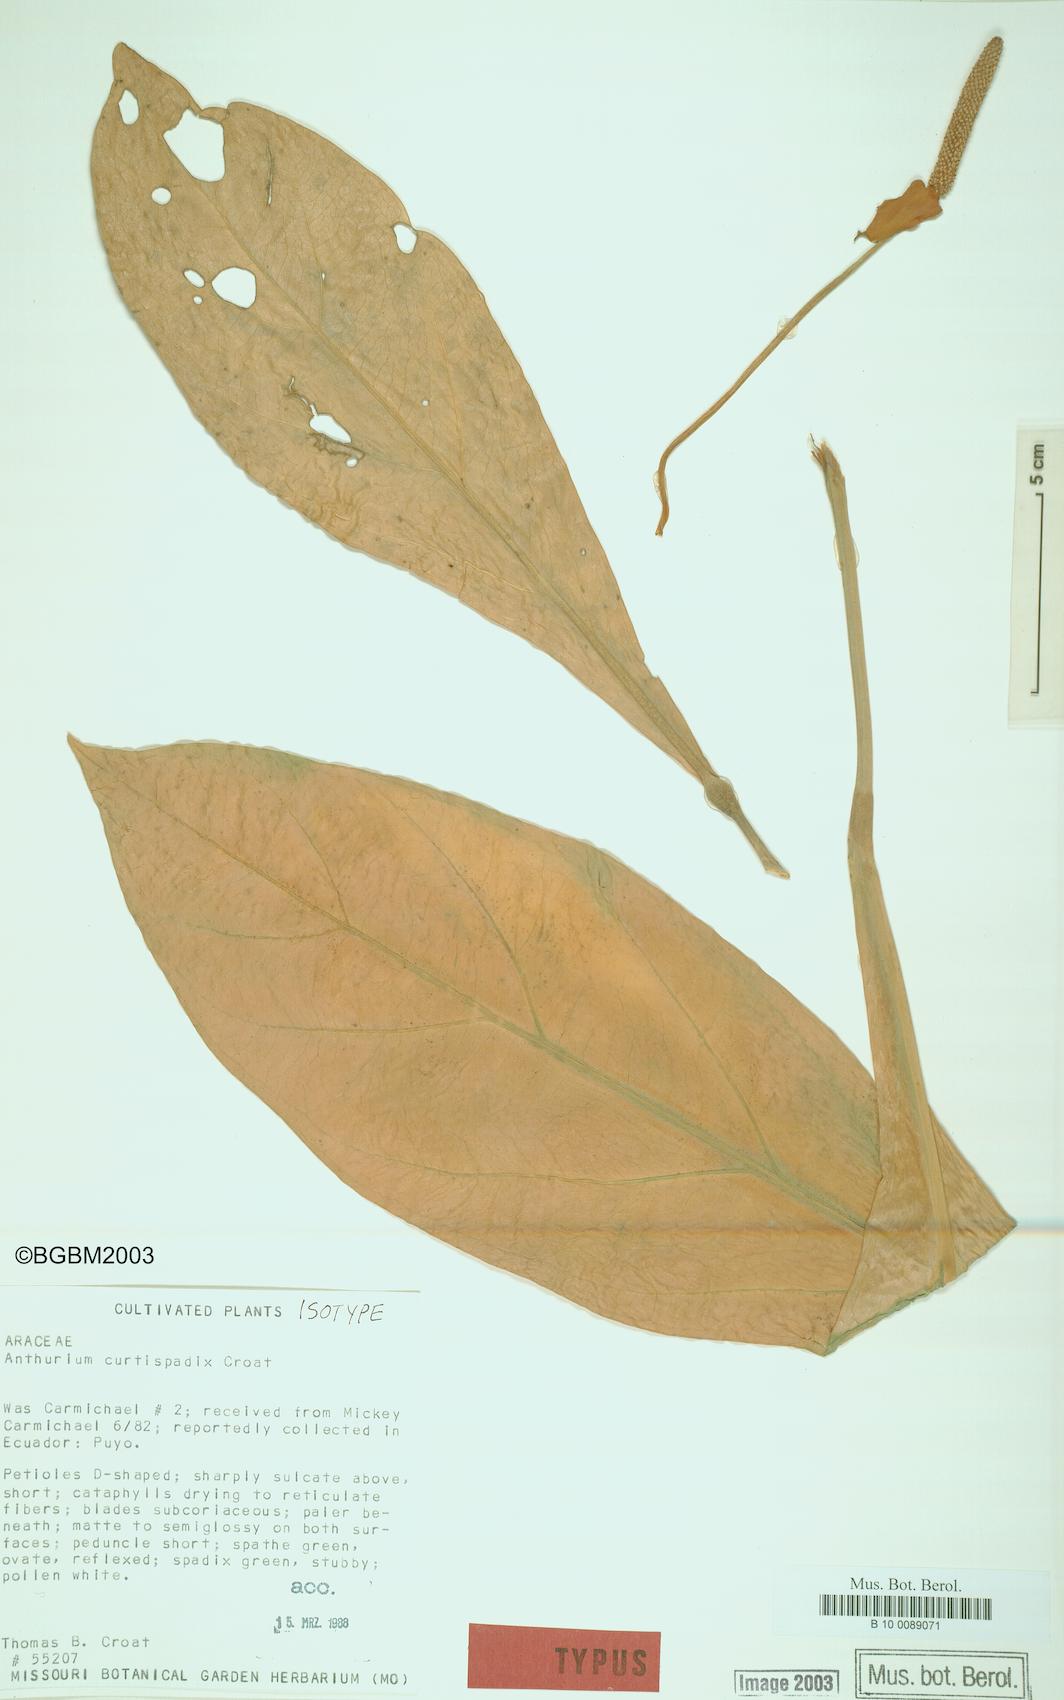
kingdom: Plantae
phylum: Tracheophyta
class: Liliopsida
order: Alismatales
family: Araceae
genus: Anthurium
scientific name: Anthurium curtispadix
